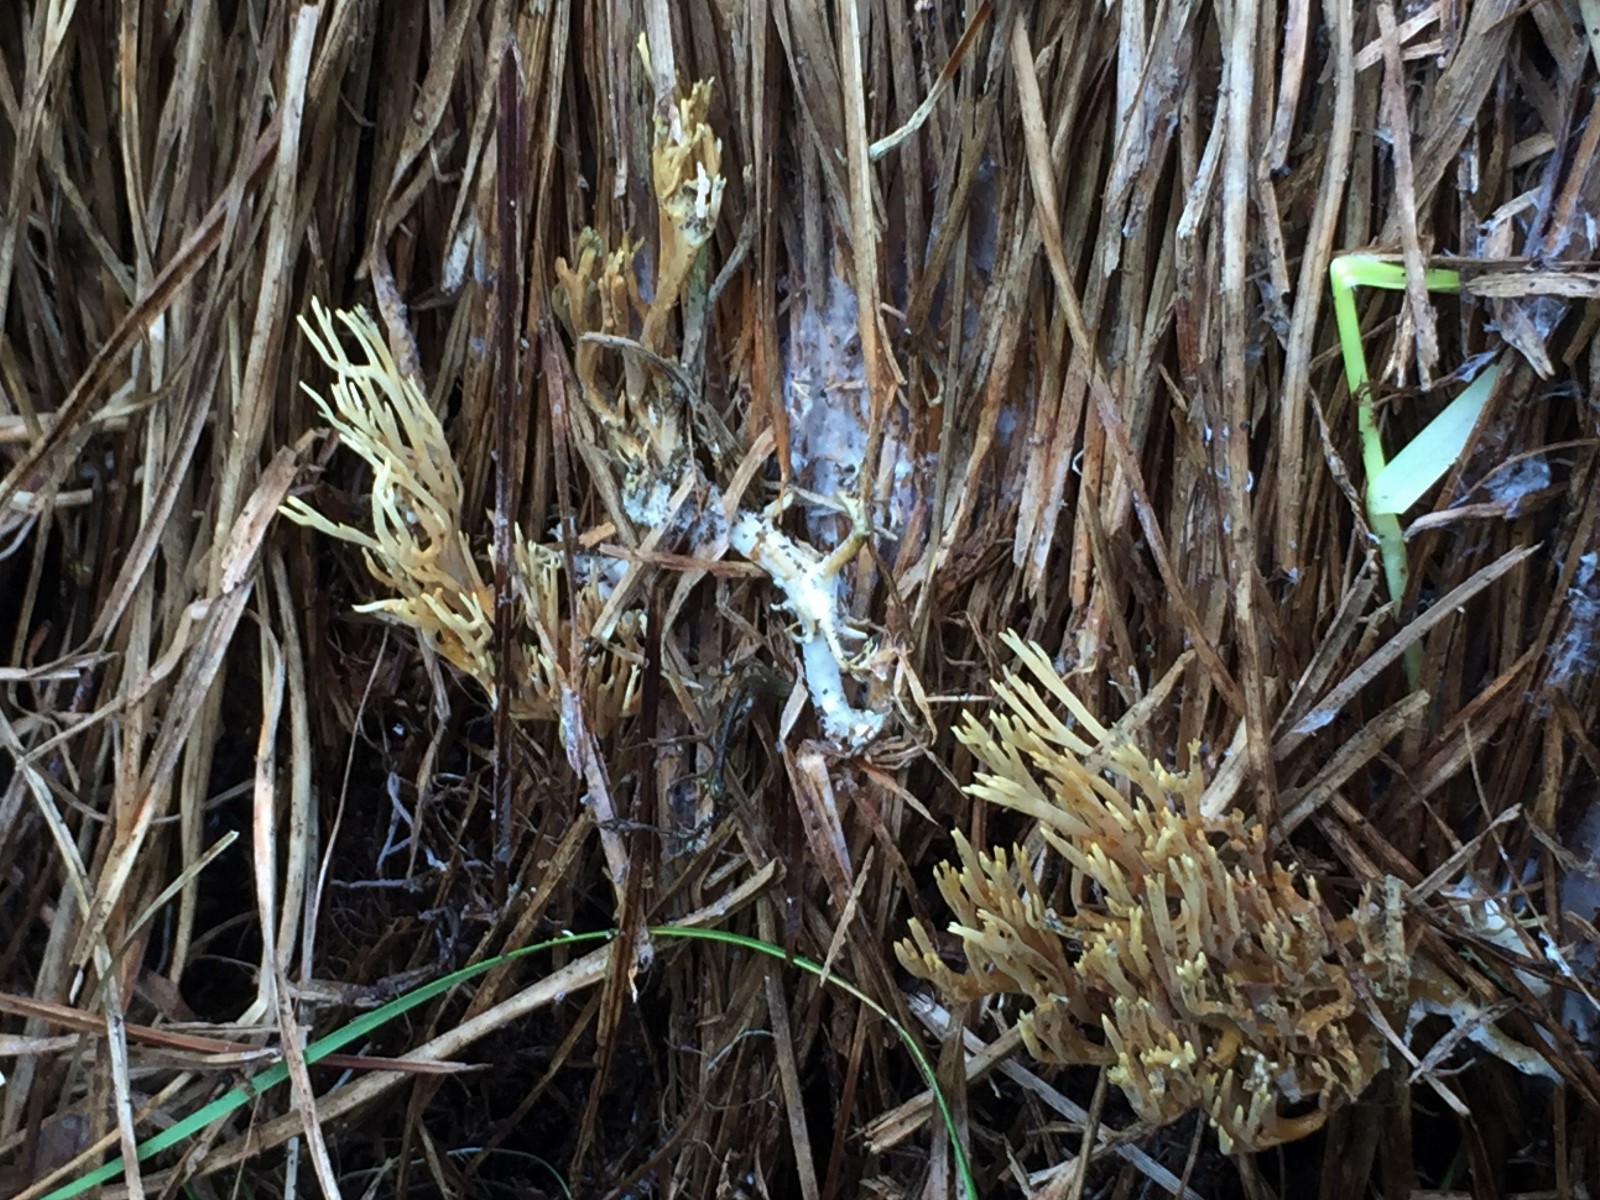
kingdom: Fungi
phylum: Basidiomycota
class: Agaricomycetes
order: Gomphales
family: Gomphaceae
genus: Phaeoclavulina
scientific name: Phaeoclavulina abietina
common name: gulgrøn koralsvamp
